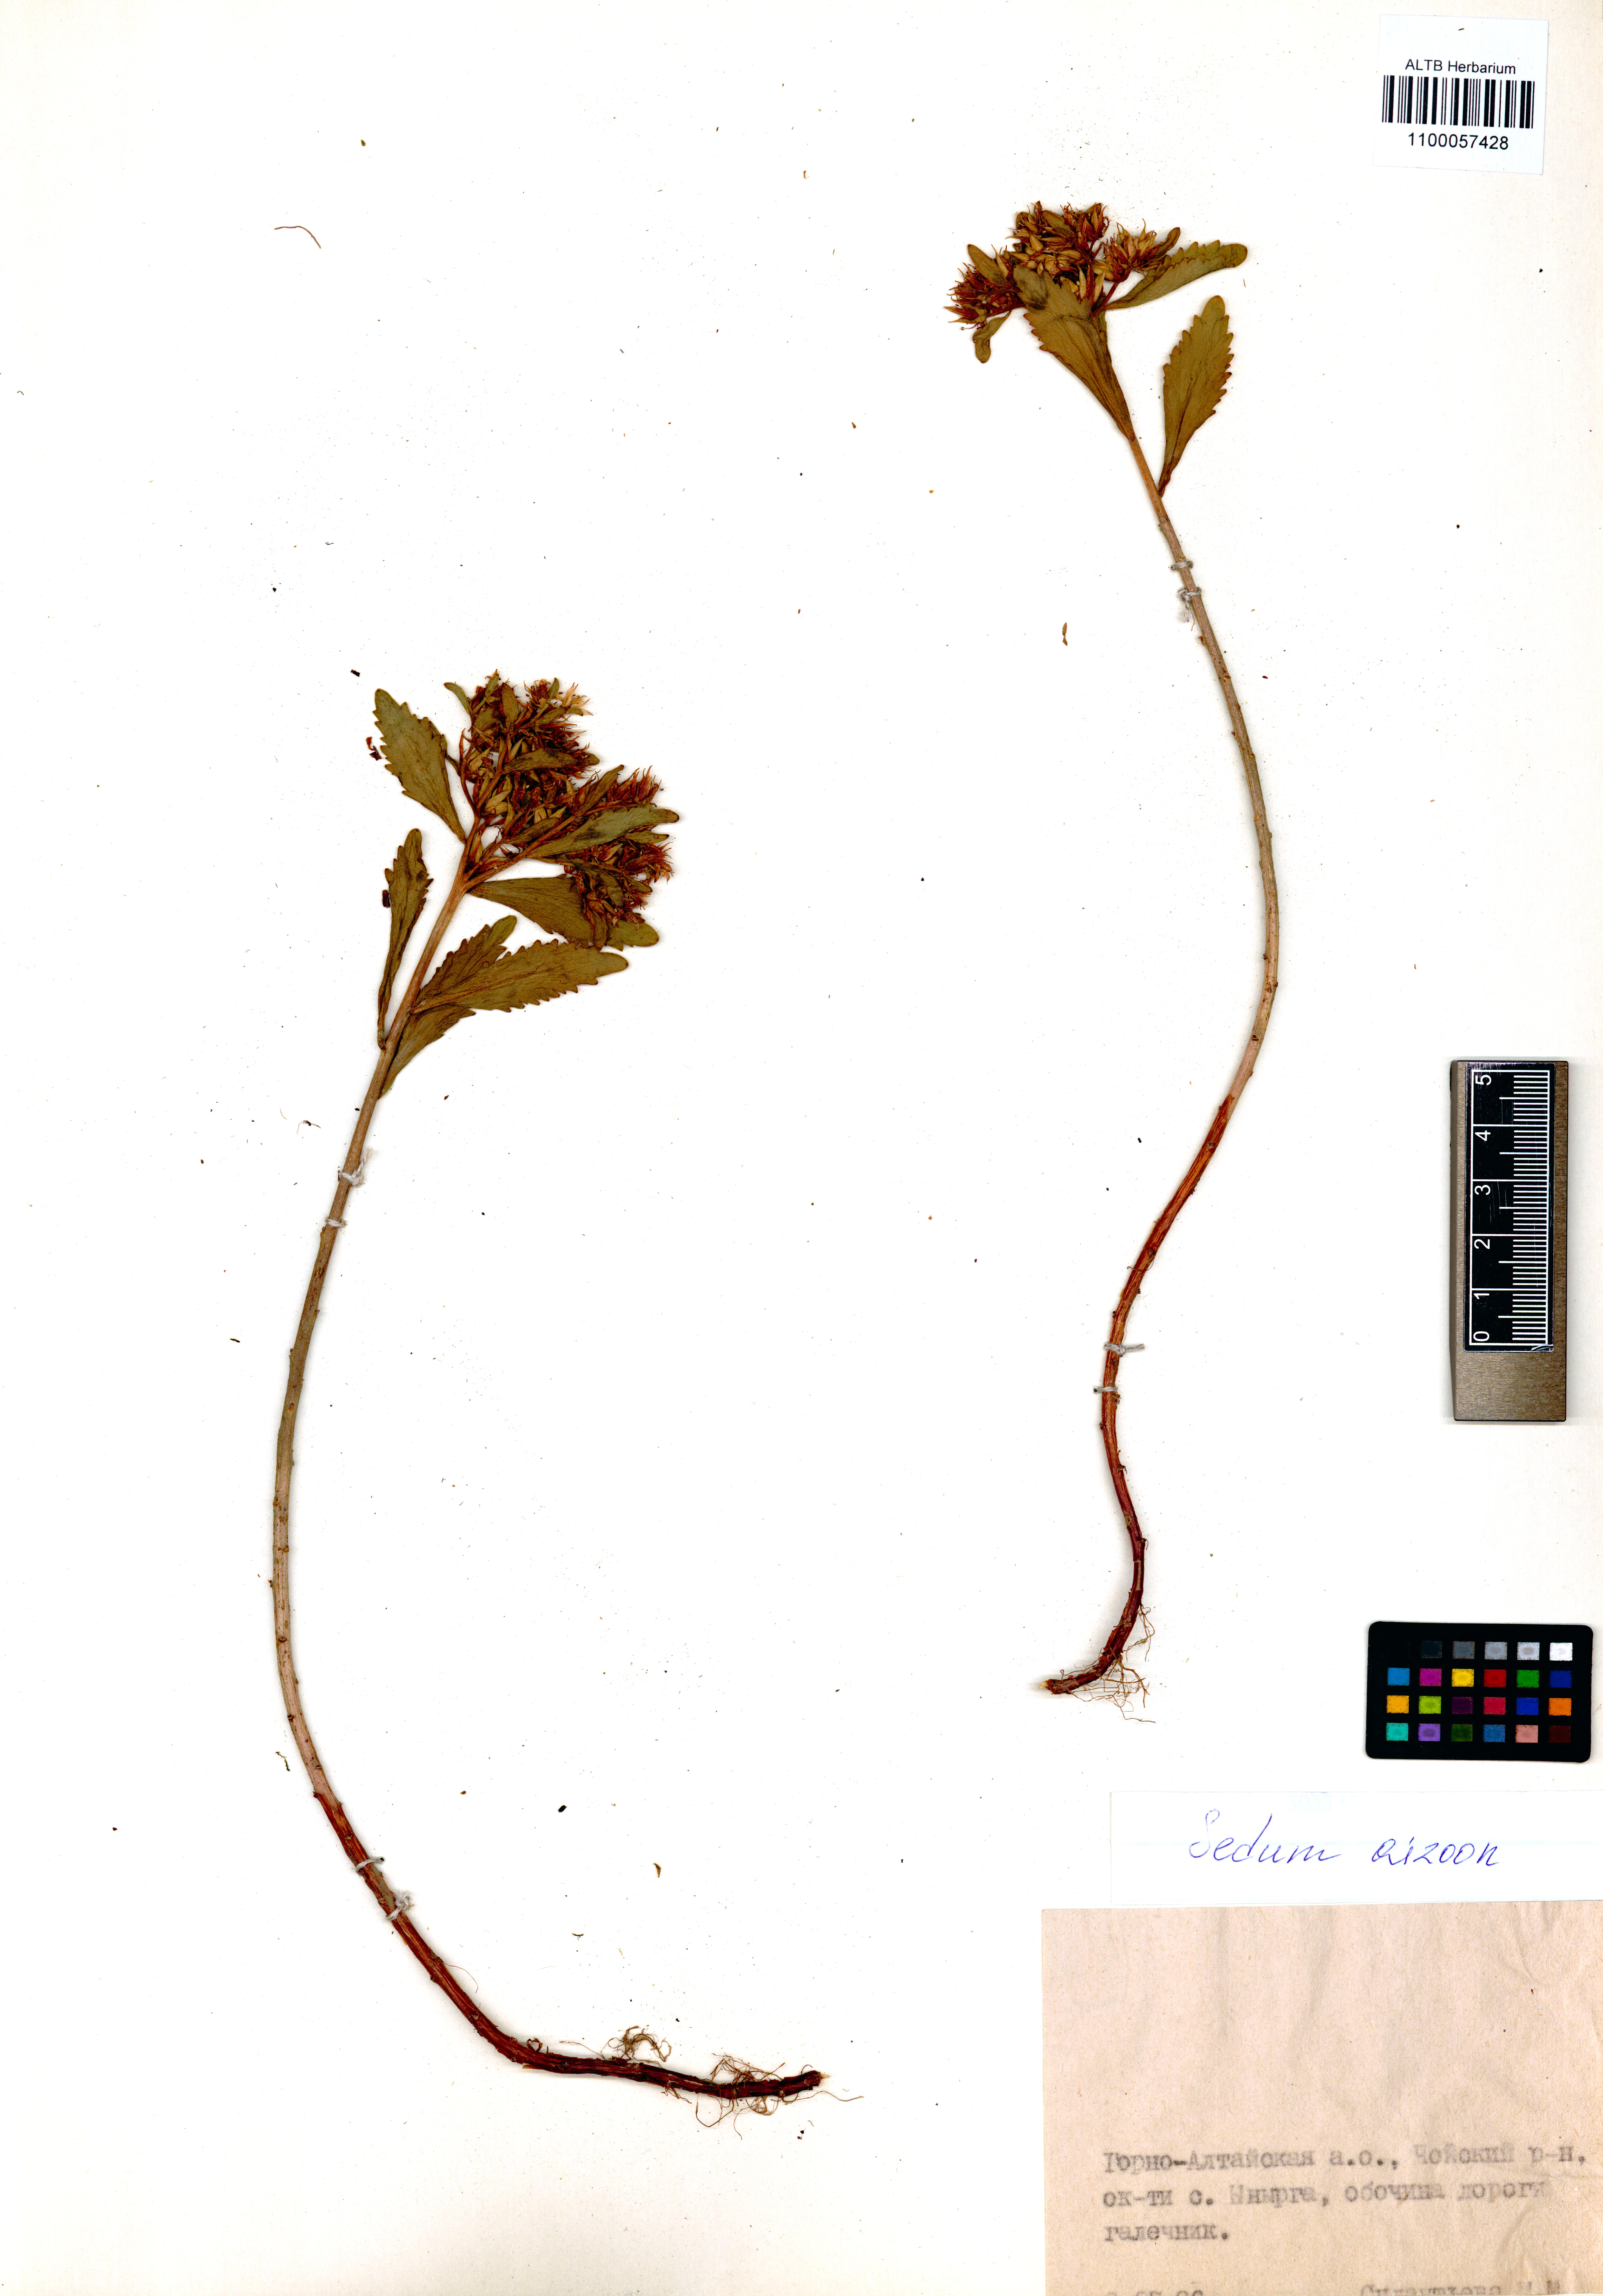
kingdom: Plantae
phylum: Tracheophyta
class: Magnoliopsida
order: Saxifragales
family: Crassulaceae
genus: Phedimus
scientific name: Phedimus aizoon
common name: Orpin aizoon
